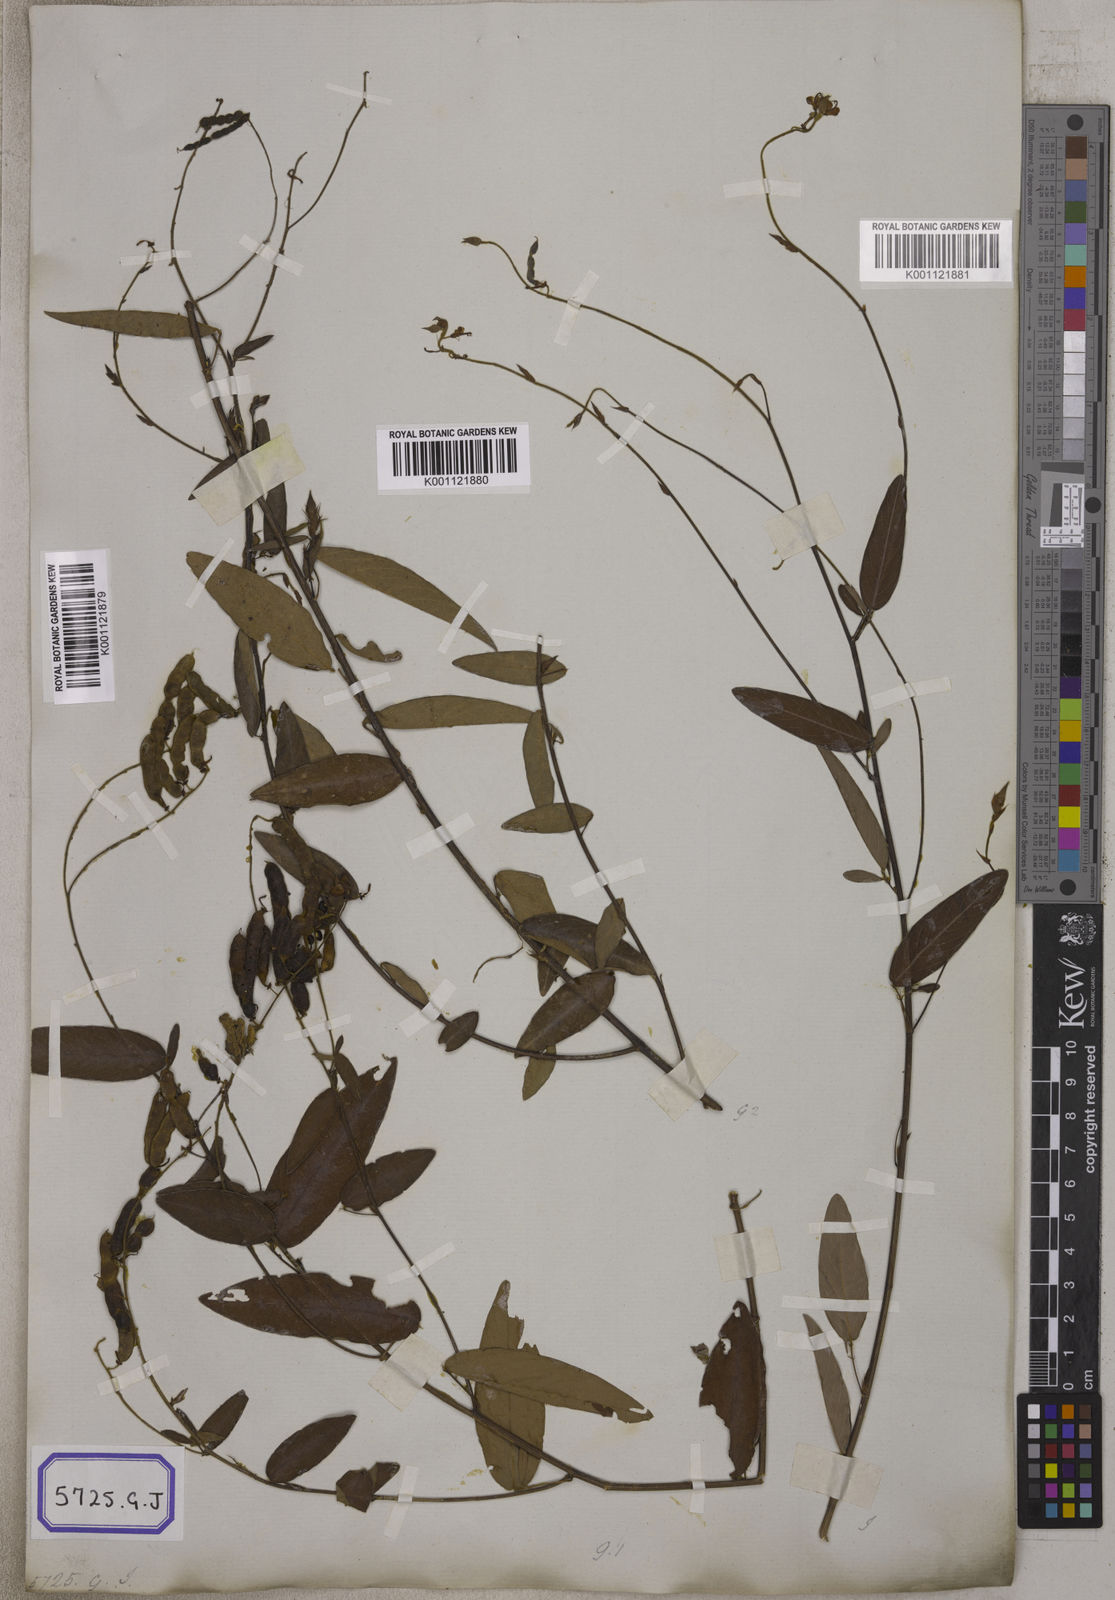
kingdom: Plantae
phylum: Tracheophyta
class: Magnoliopsida
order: Fabales
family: Fabaceae
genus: Codariocalyx
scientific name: Codariocalyx motorius
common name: Telegraph-plant
